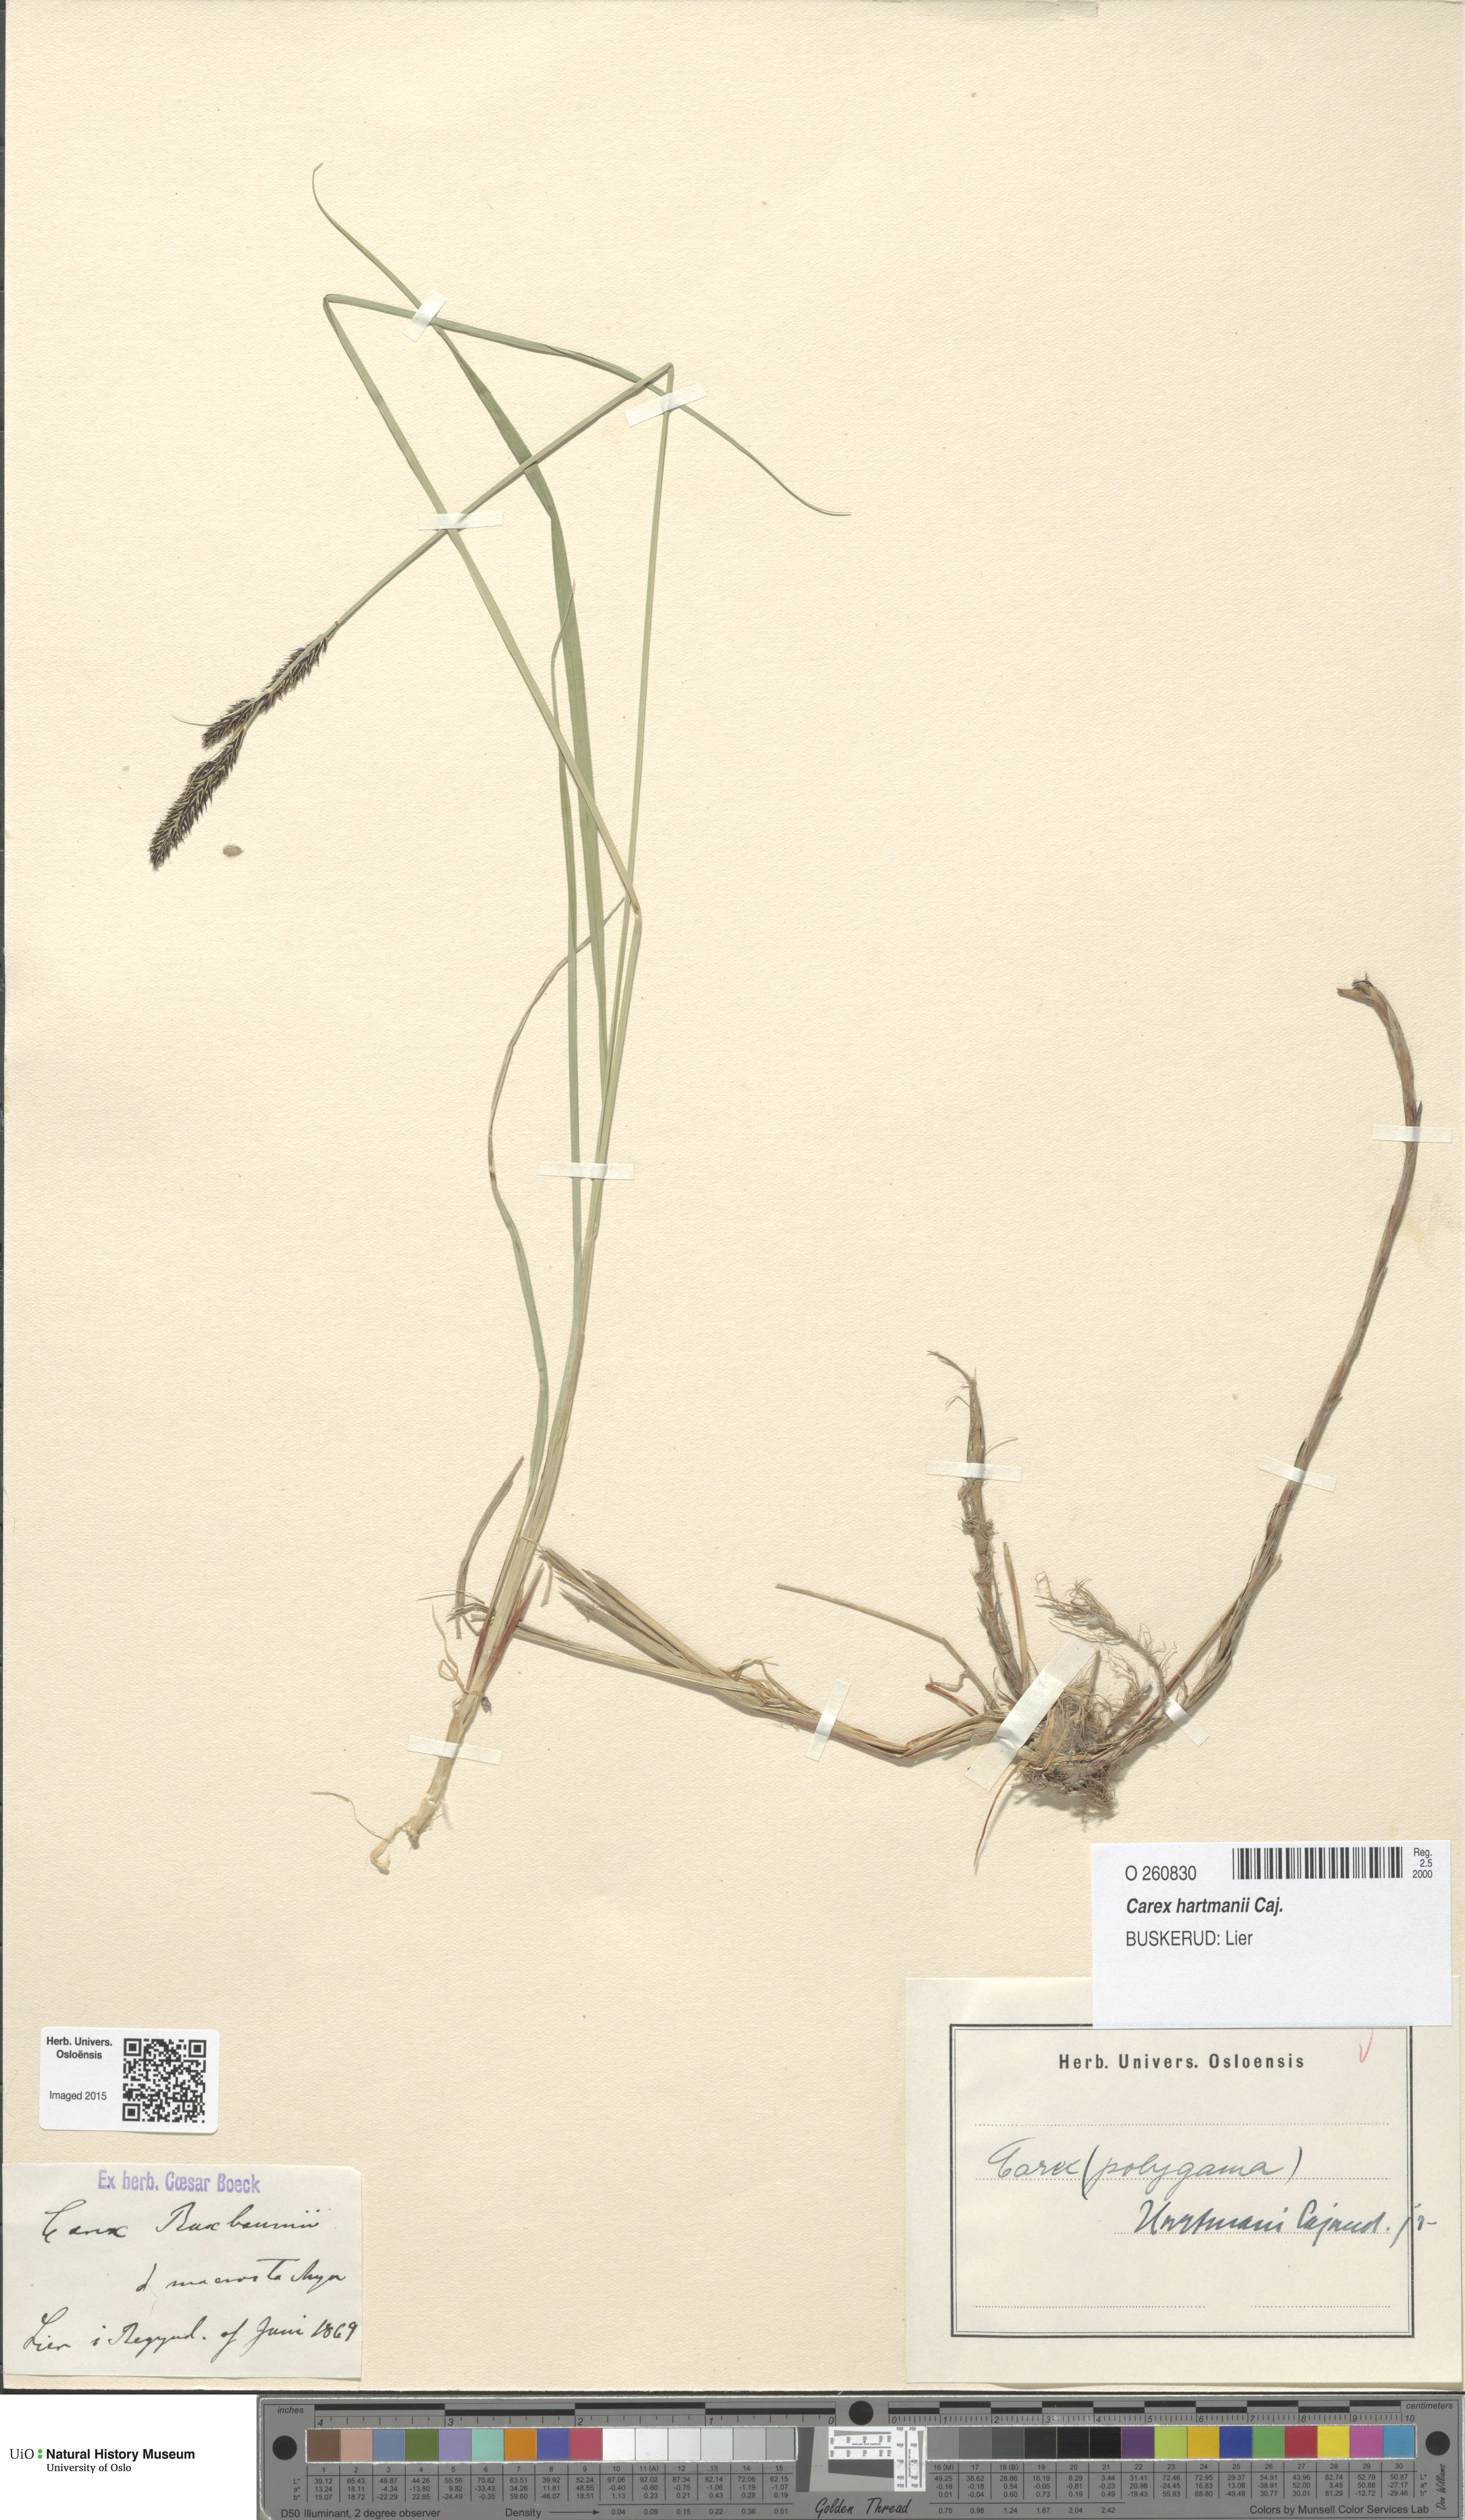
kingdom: Plantae
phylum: Tracheophyta
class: Liliopsida
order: Poales
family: Cyperaceae
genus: Carex
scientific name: Carex hartmaniorum
